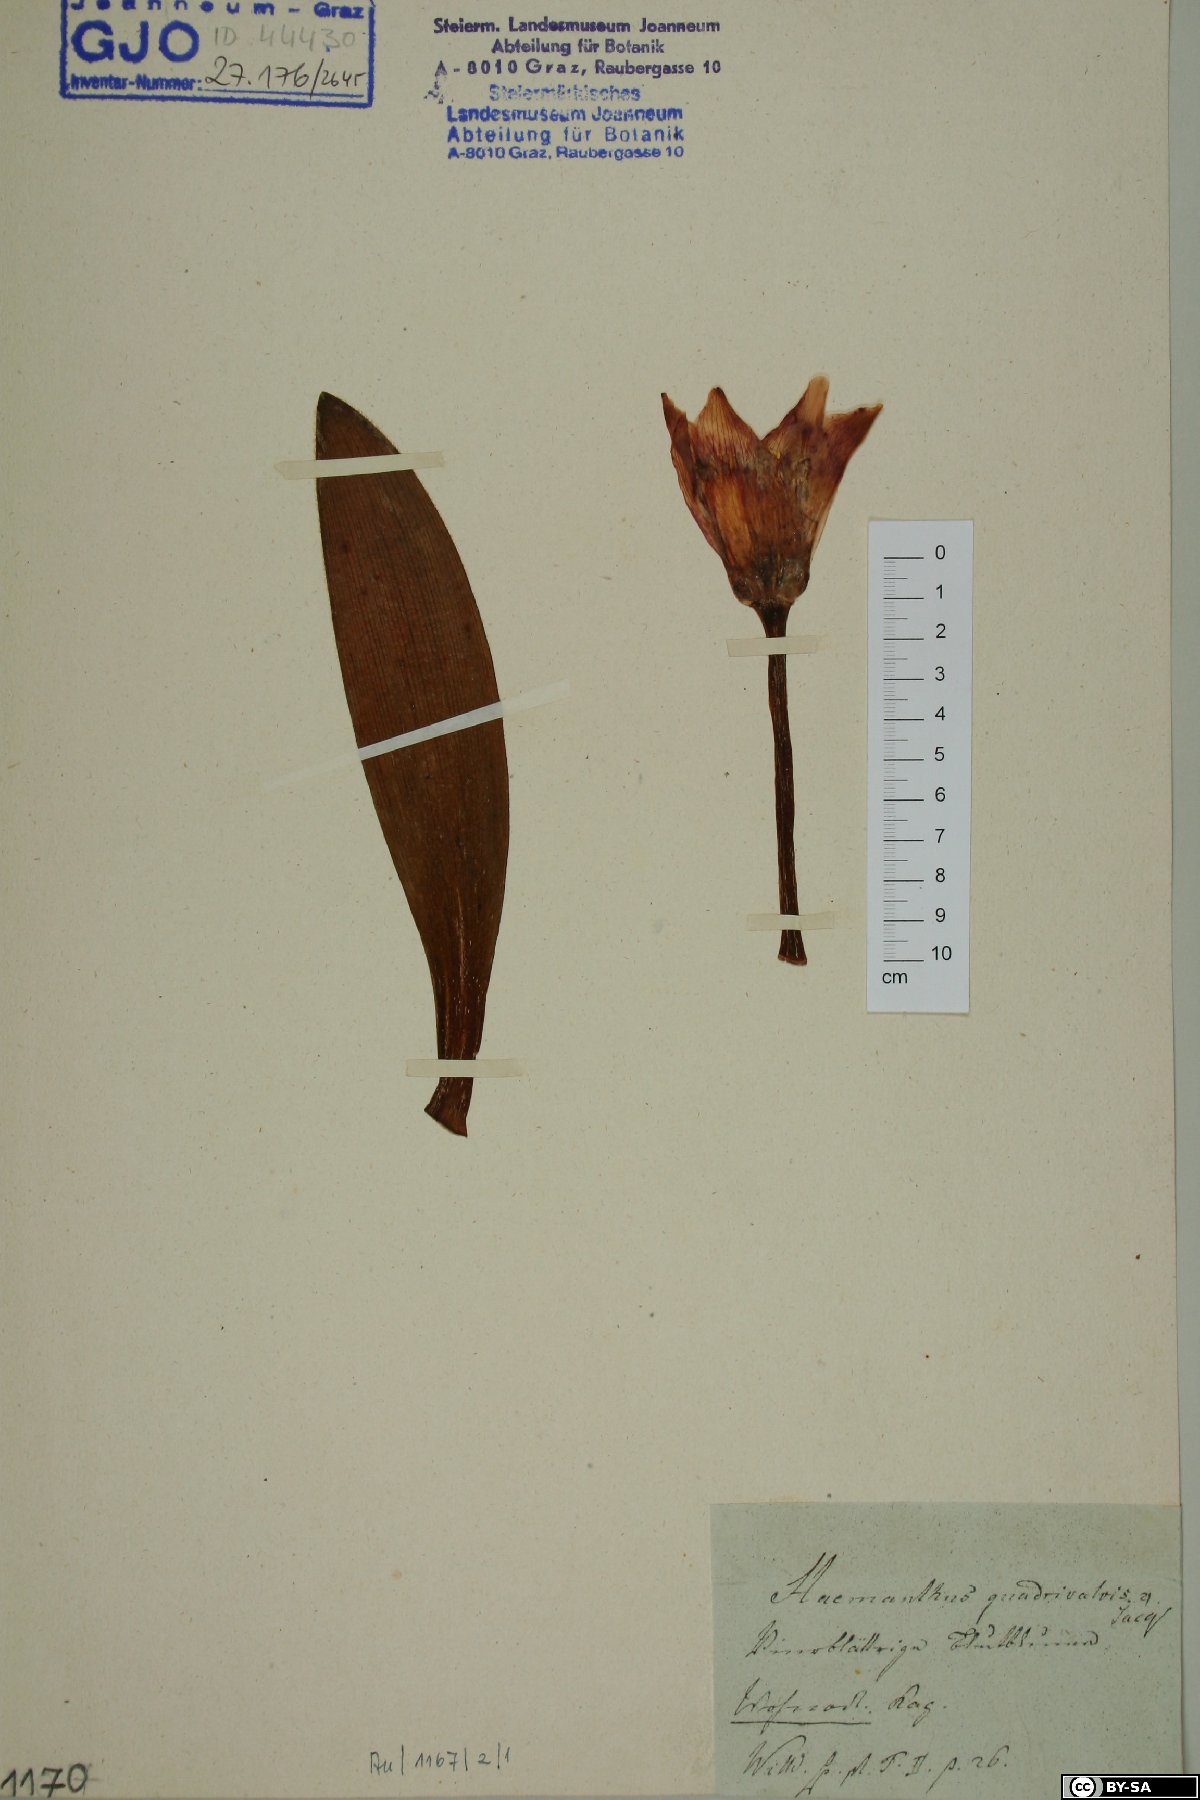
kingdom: Plantae
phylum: Tracheophyta
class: Liliopsida
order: Asparagales
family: Amaryllidaceae
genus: Haemanthus
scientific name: Haemanthus pubescens
